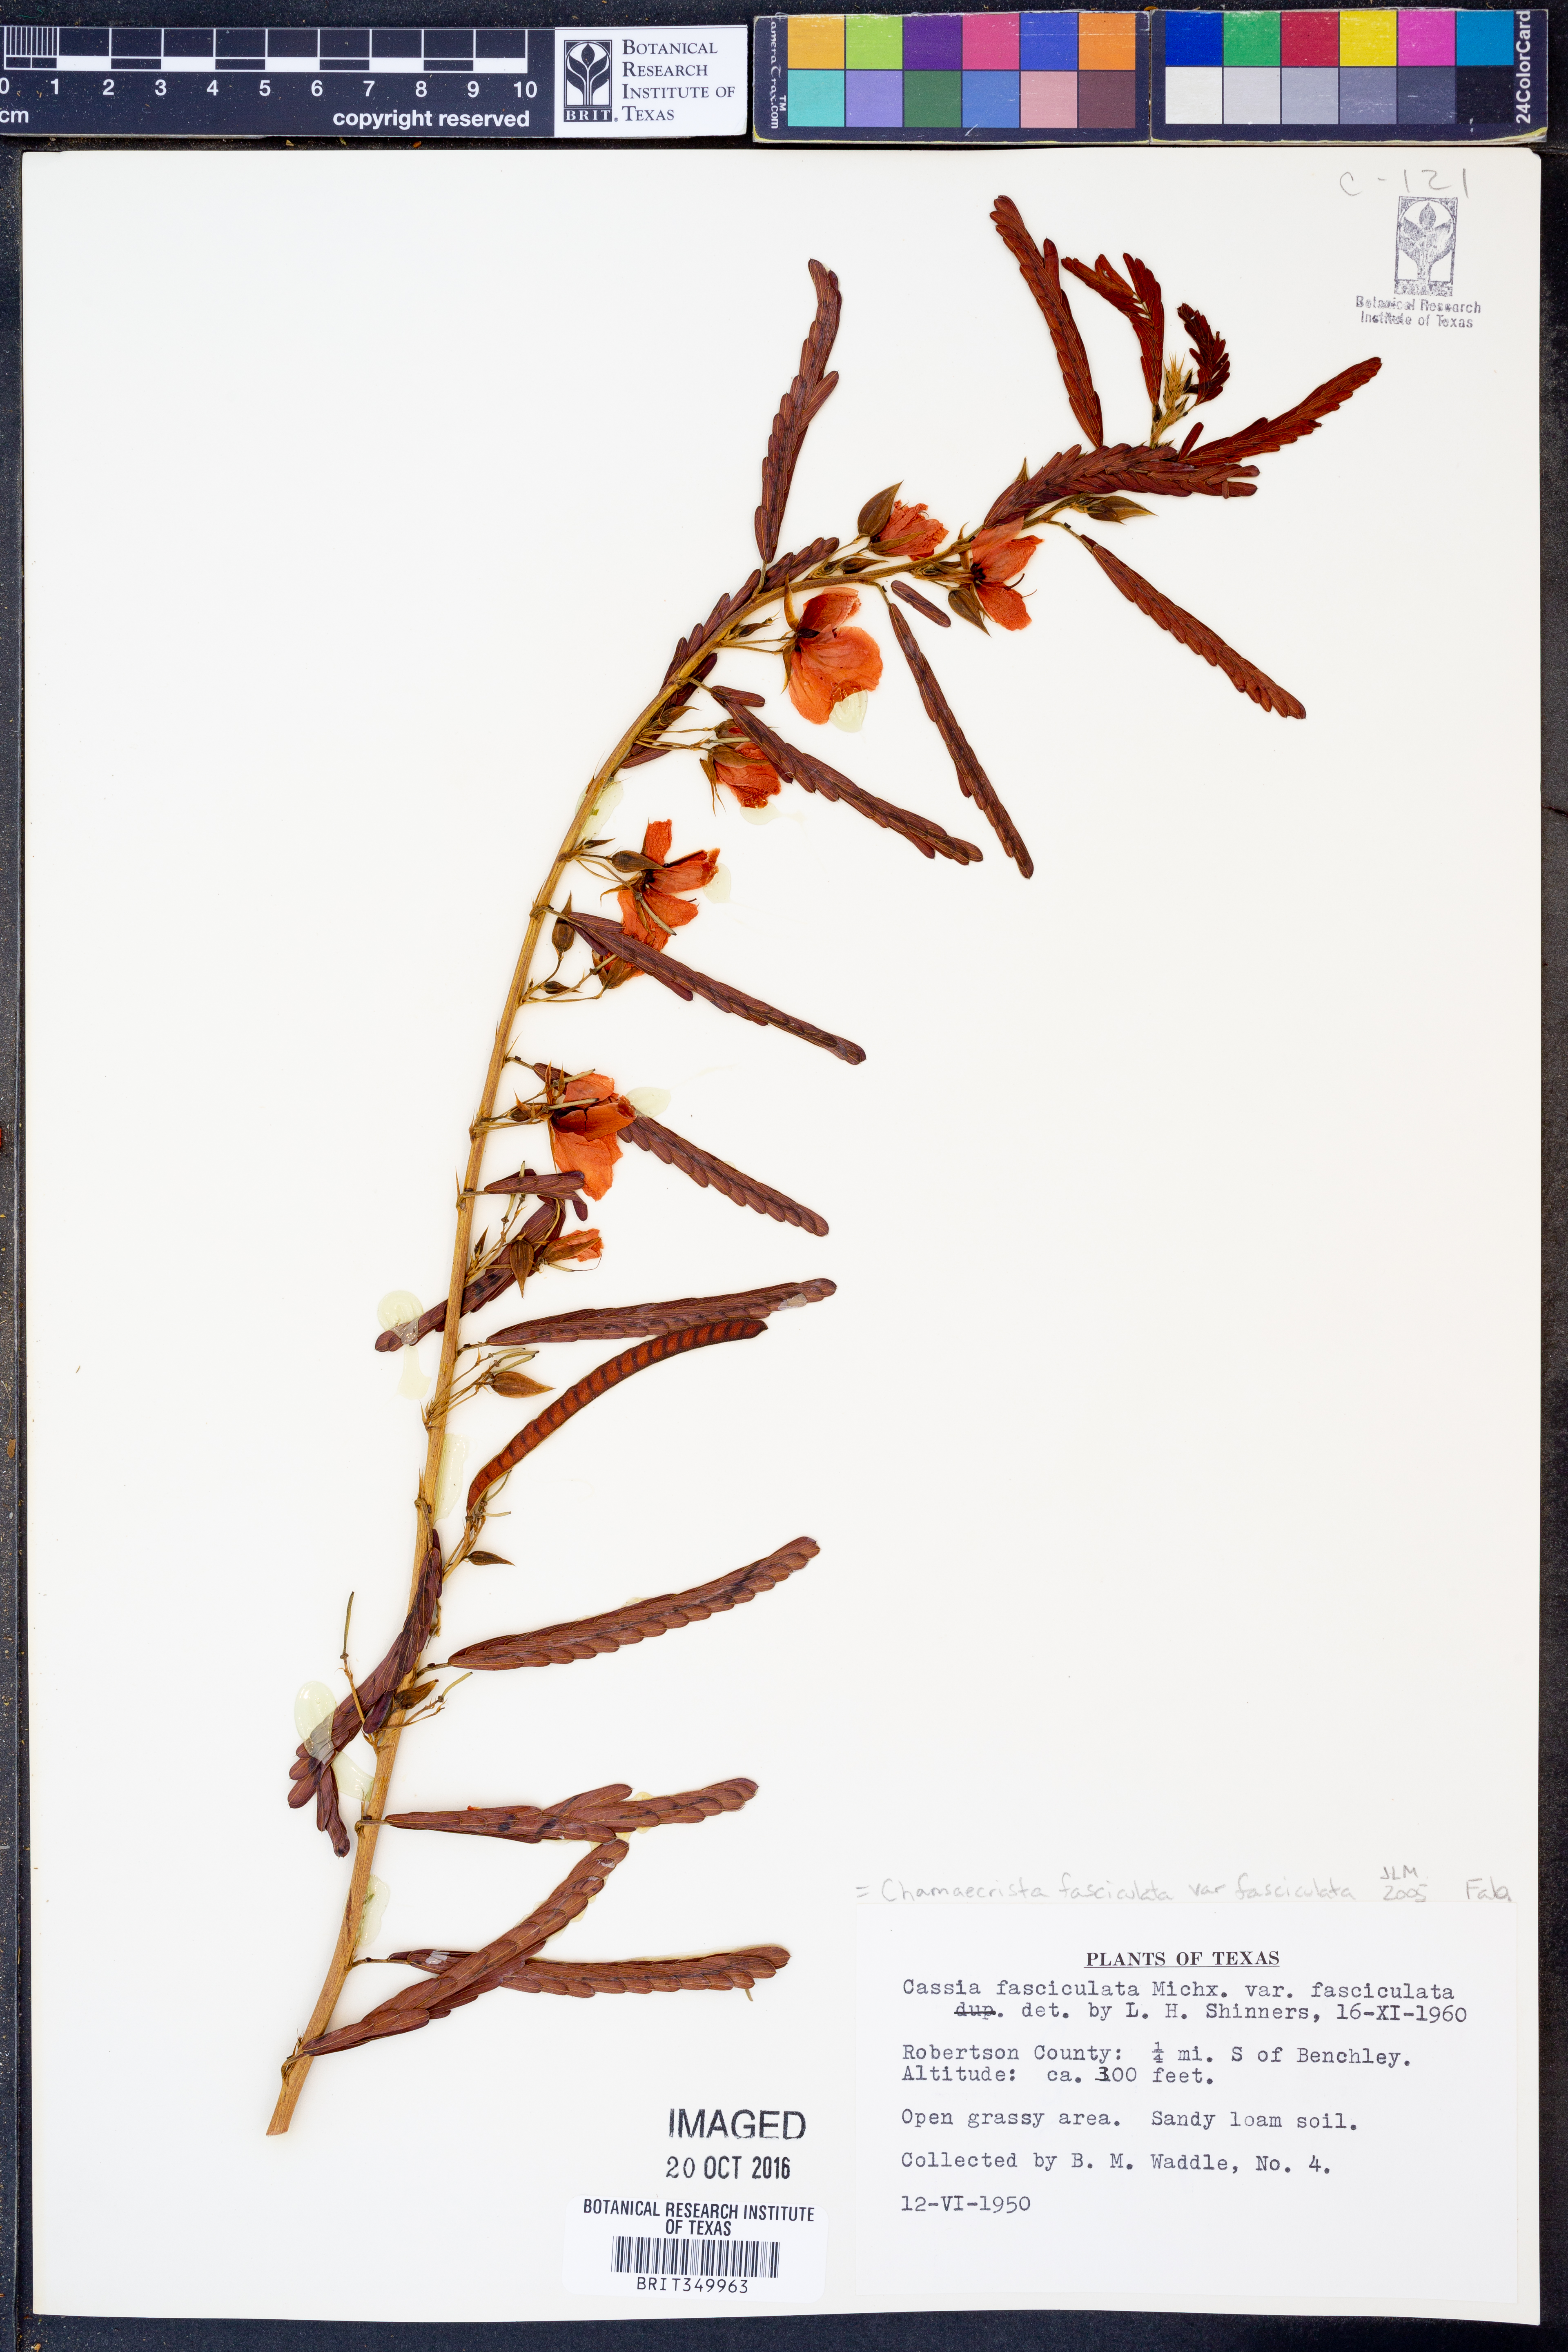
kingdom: Plantae
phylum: Tracheophyta
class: Magnoliopsida
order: Fabales
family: Fabaceae
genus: Chamaecrista
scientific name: Chamaecrista fasciculata
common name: Golden cassia
